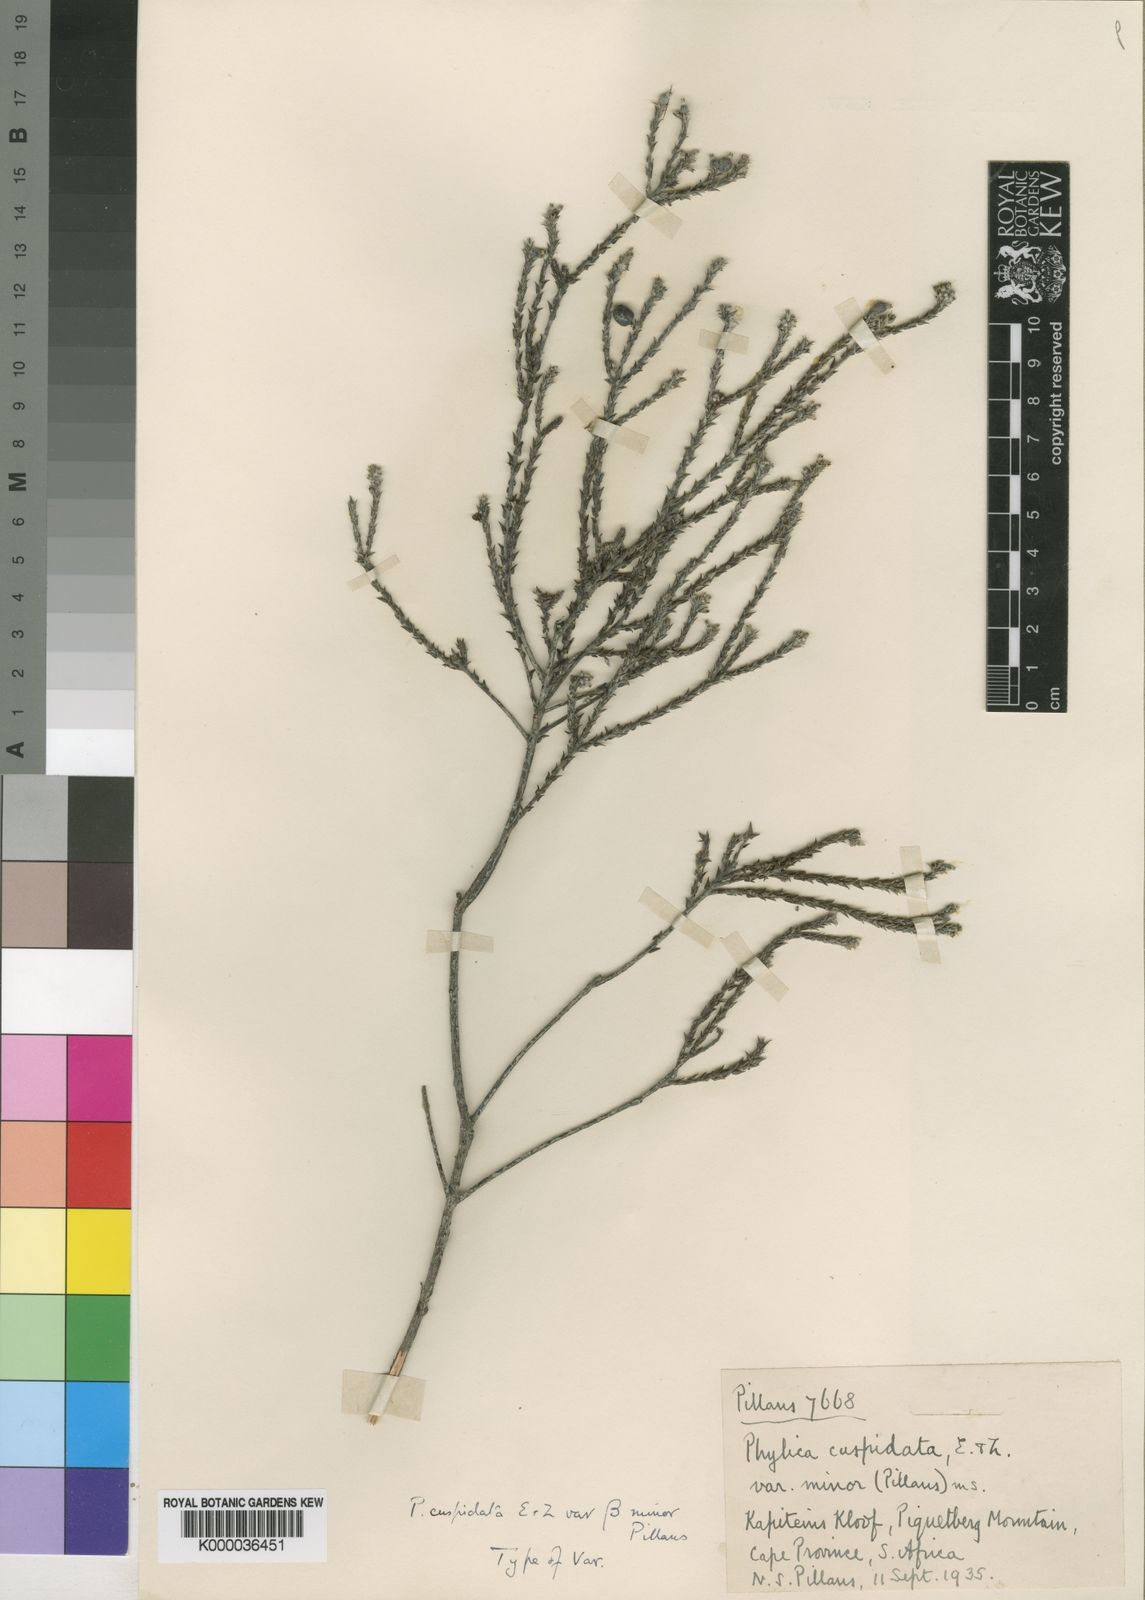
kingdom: Plantae
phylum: Tracheophyta
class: Magnoliopsida
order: Rosales
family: Rhamnaceae
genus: Phylica
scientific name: Phylica cuspidata
